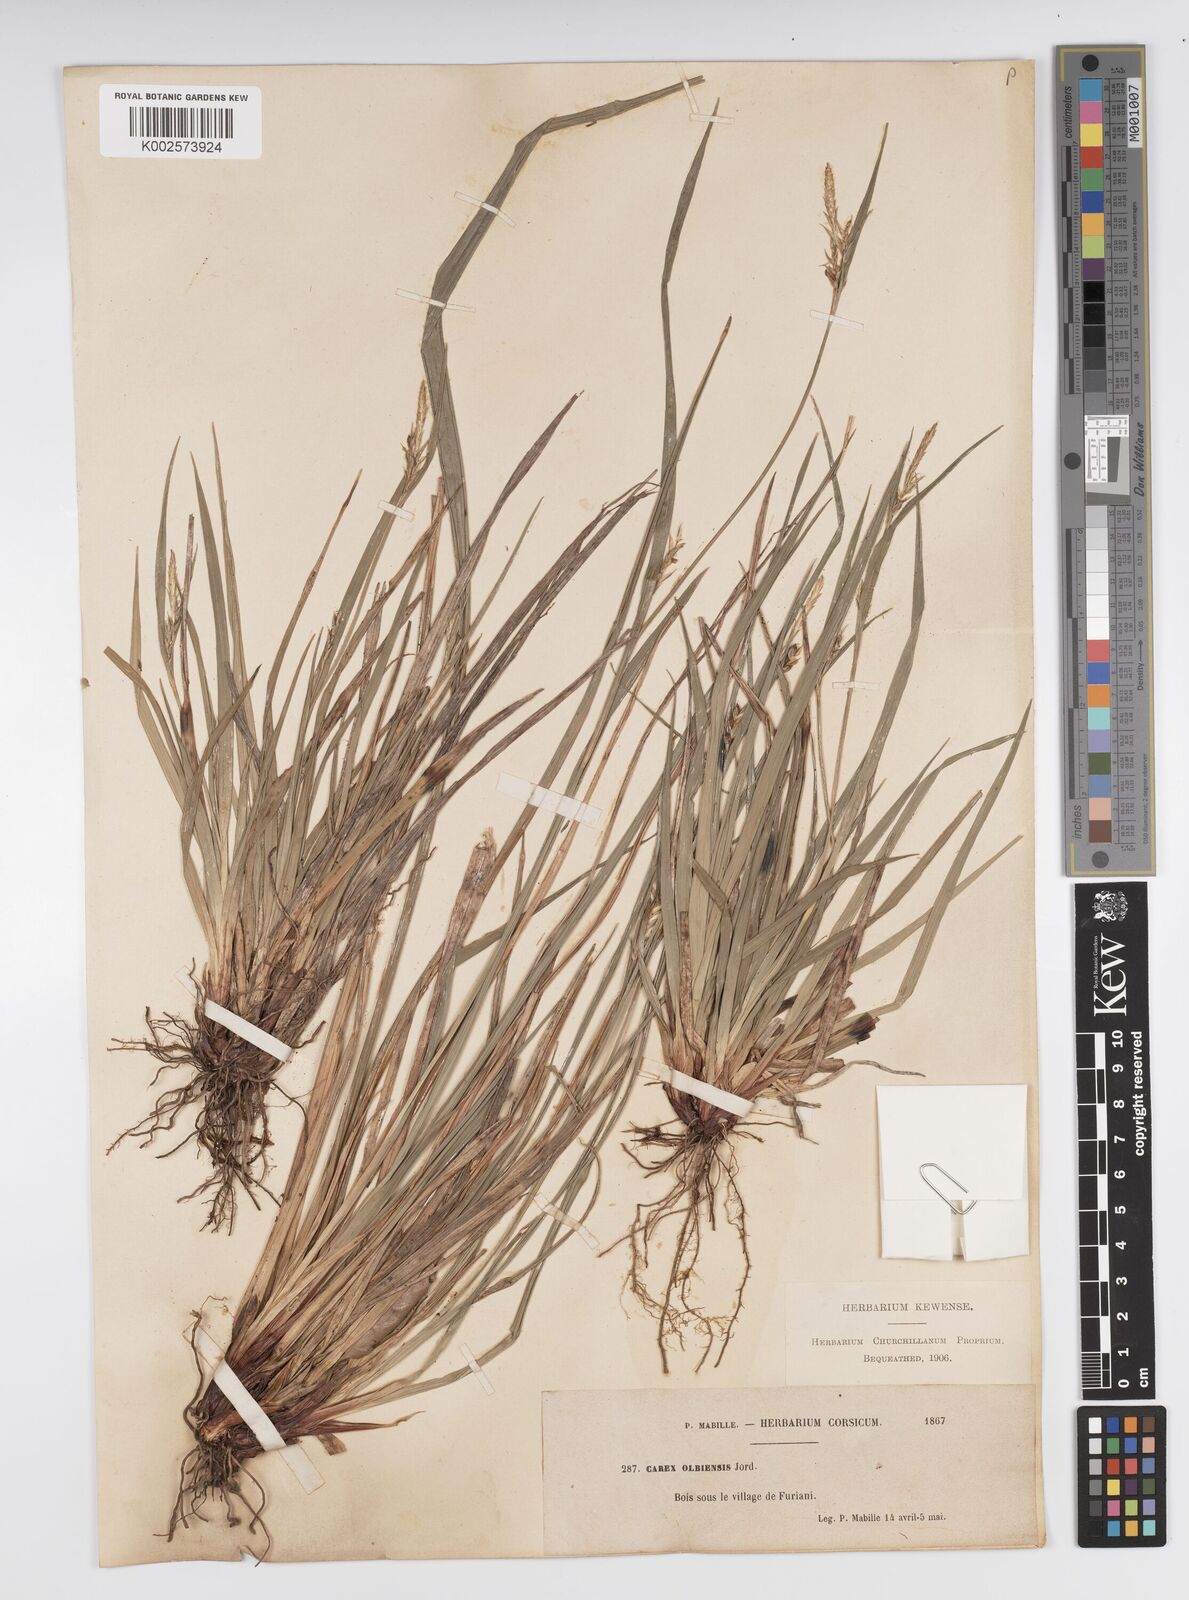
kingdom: Plantae
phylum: Tracheophyta
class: Liliopsida
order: Poales
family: Cyperaceae
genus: Carex
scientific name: Carex olbiensis
